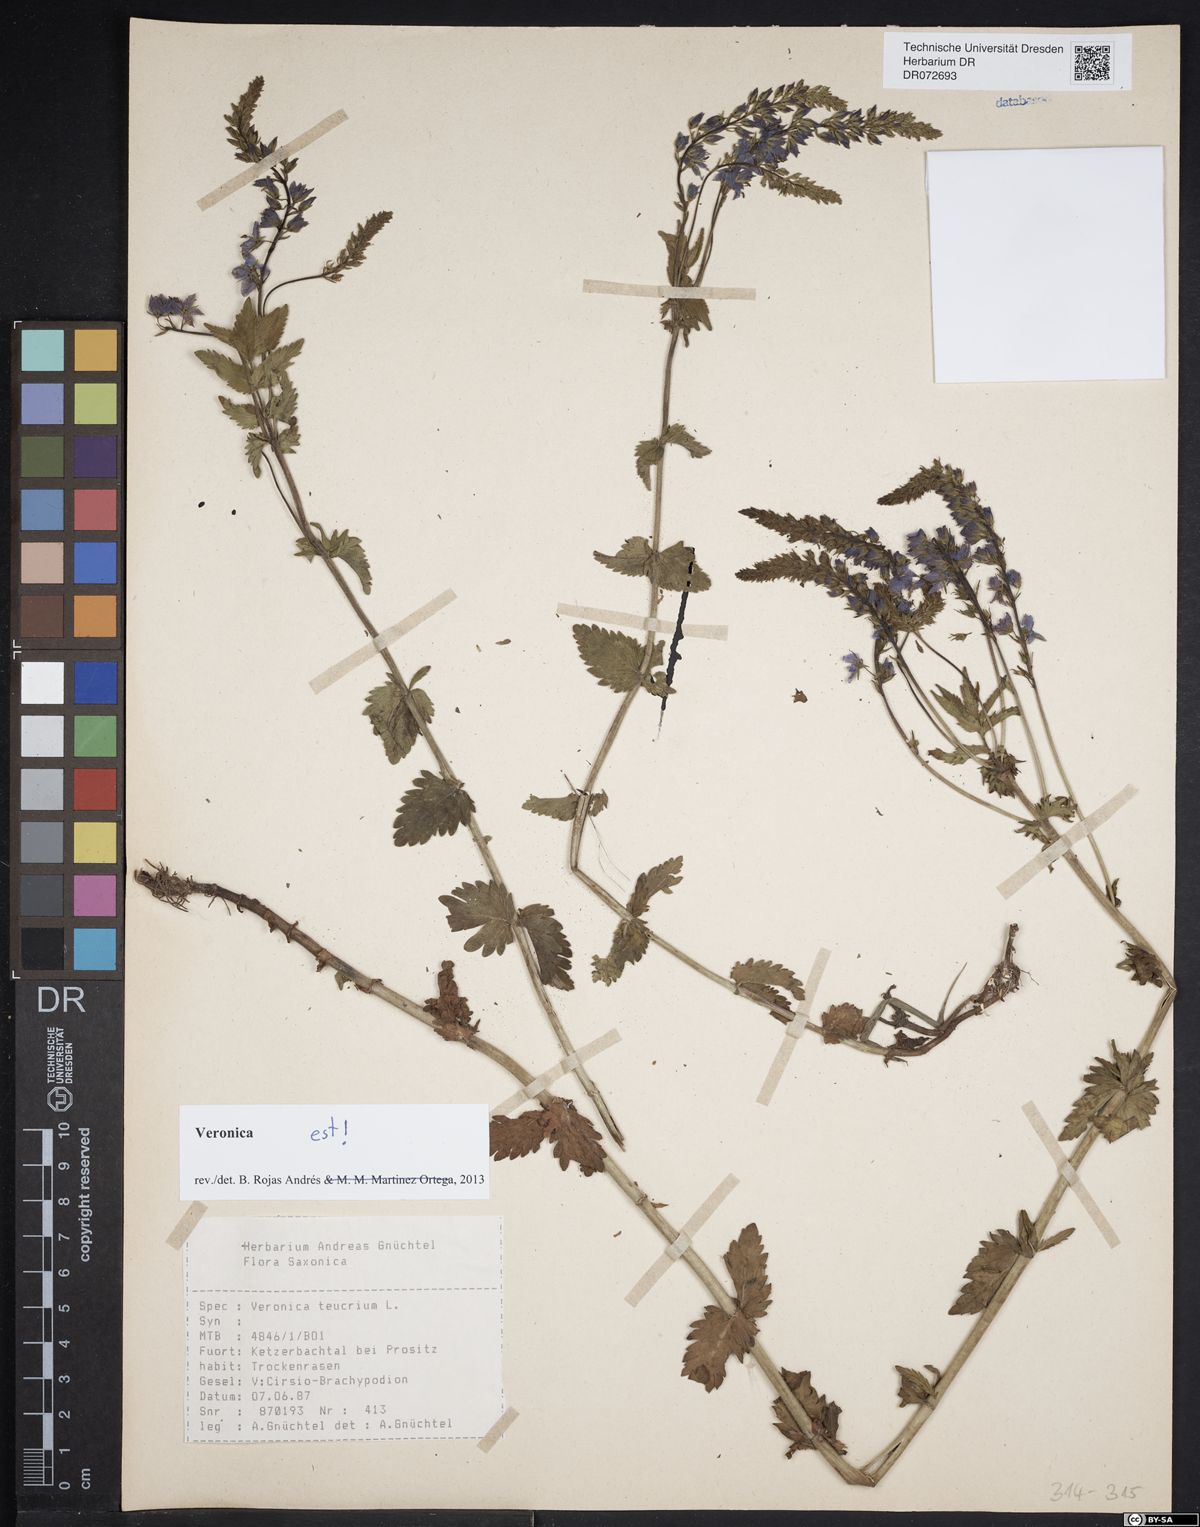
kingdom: Plantae
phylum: Tracheophyta
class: Magnoliopsida
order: Lamiales
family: Plantaginaceae
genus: Veronica
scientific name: Veronica teucrium
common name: Large speedwell
